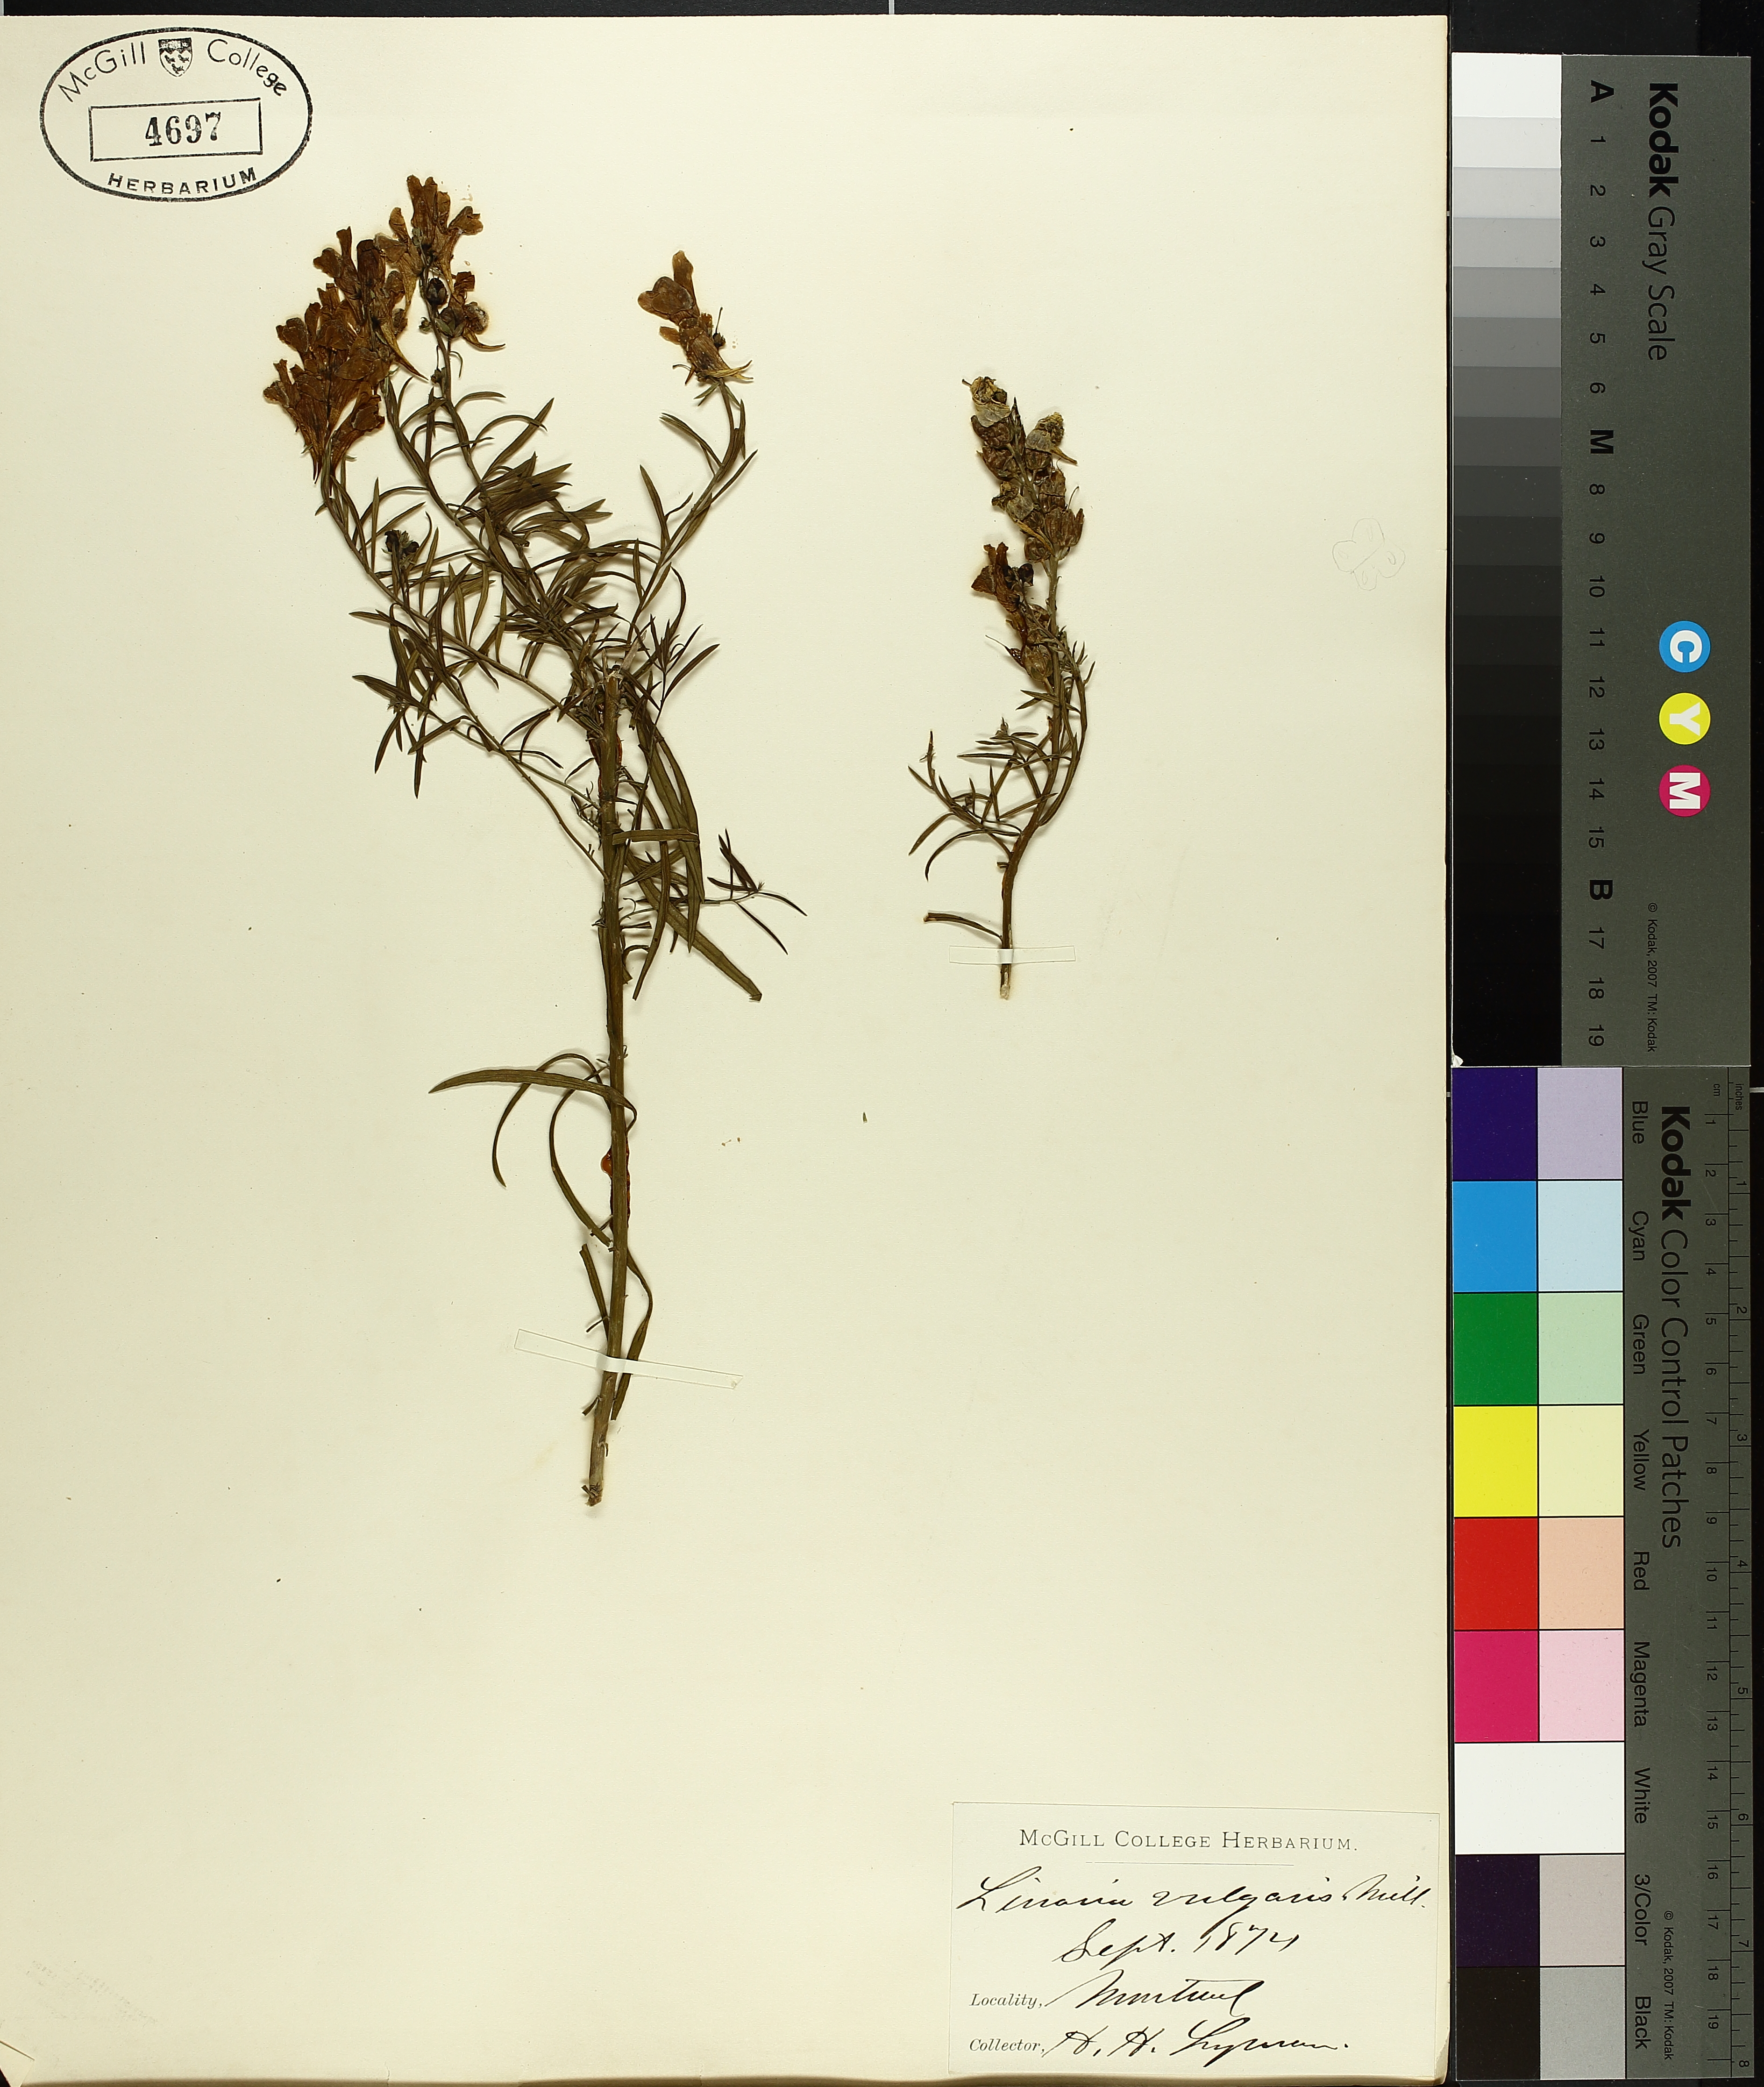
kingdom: Plantae
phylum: Tracheophyta
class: Magnoliopsida
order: Lamiales
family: Plantaginaceae
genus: Hippuris
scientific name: Hippuris tetraphylla
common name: Four-leaved mare's-tail
